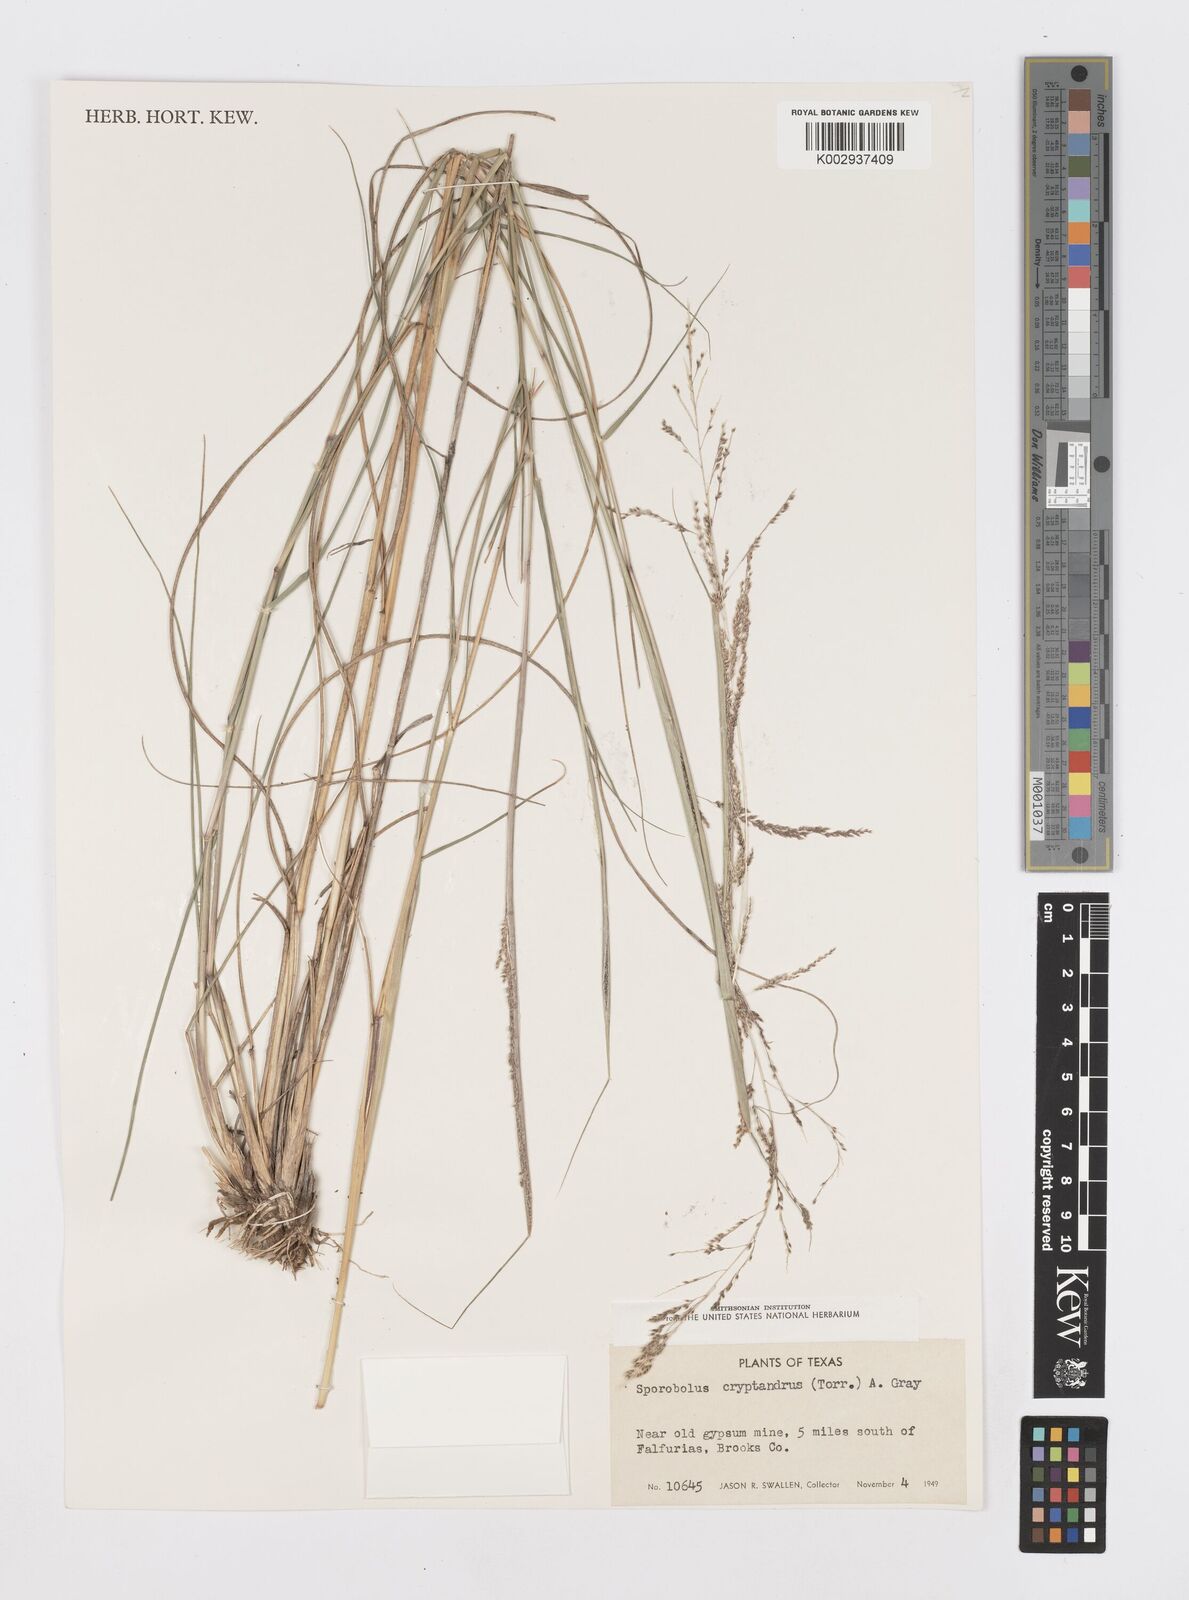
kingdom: Plantae
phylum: Tracheophyta
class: Liliopsida
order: Poales
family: Poaceae
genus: Sporobolus
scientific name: Sporobolus cryptandrus
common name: Sand dropseed
